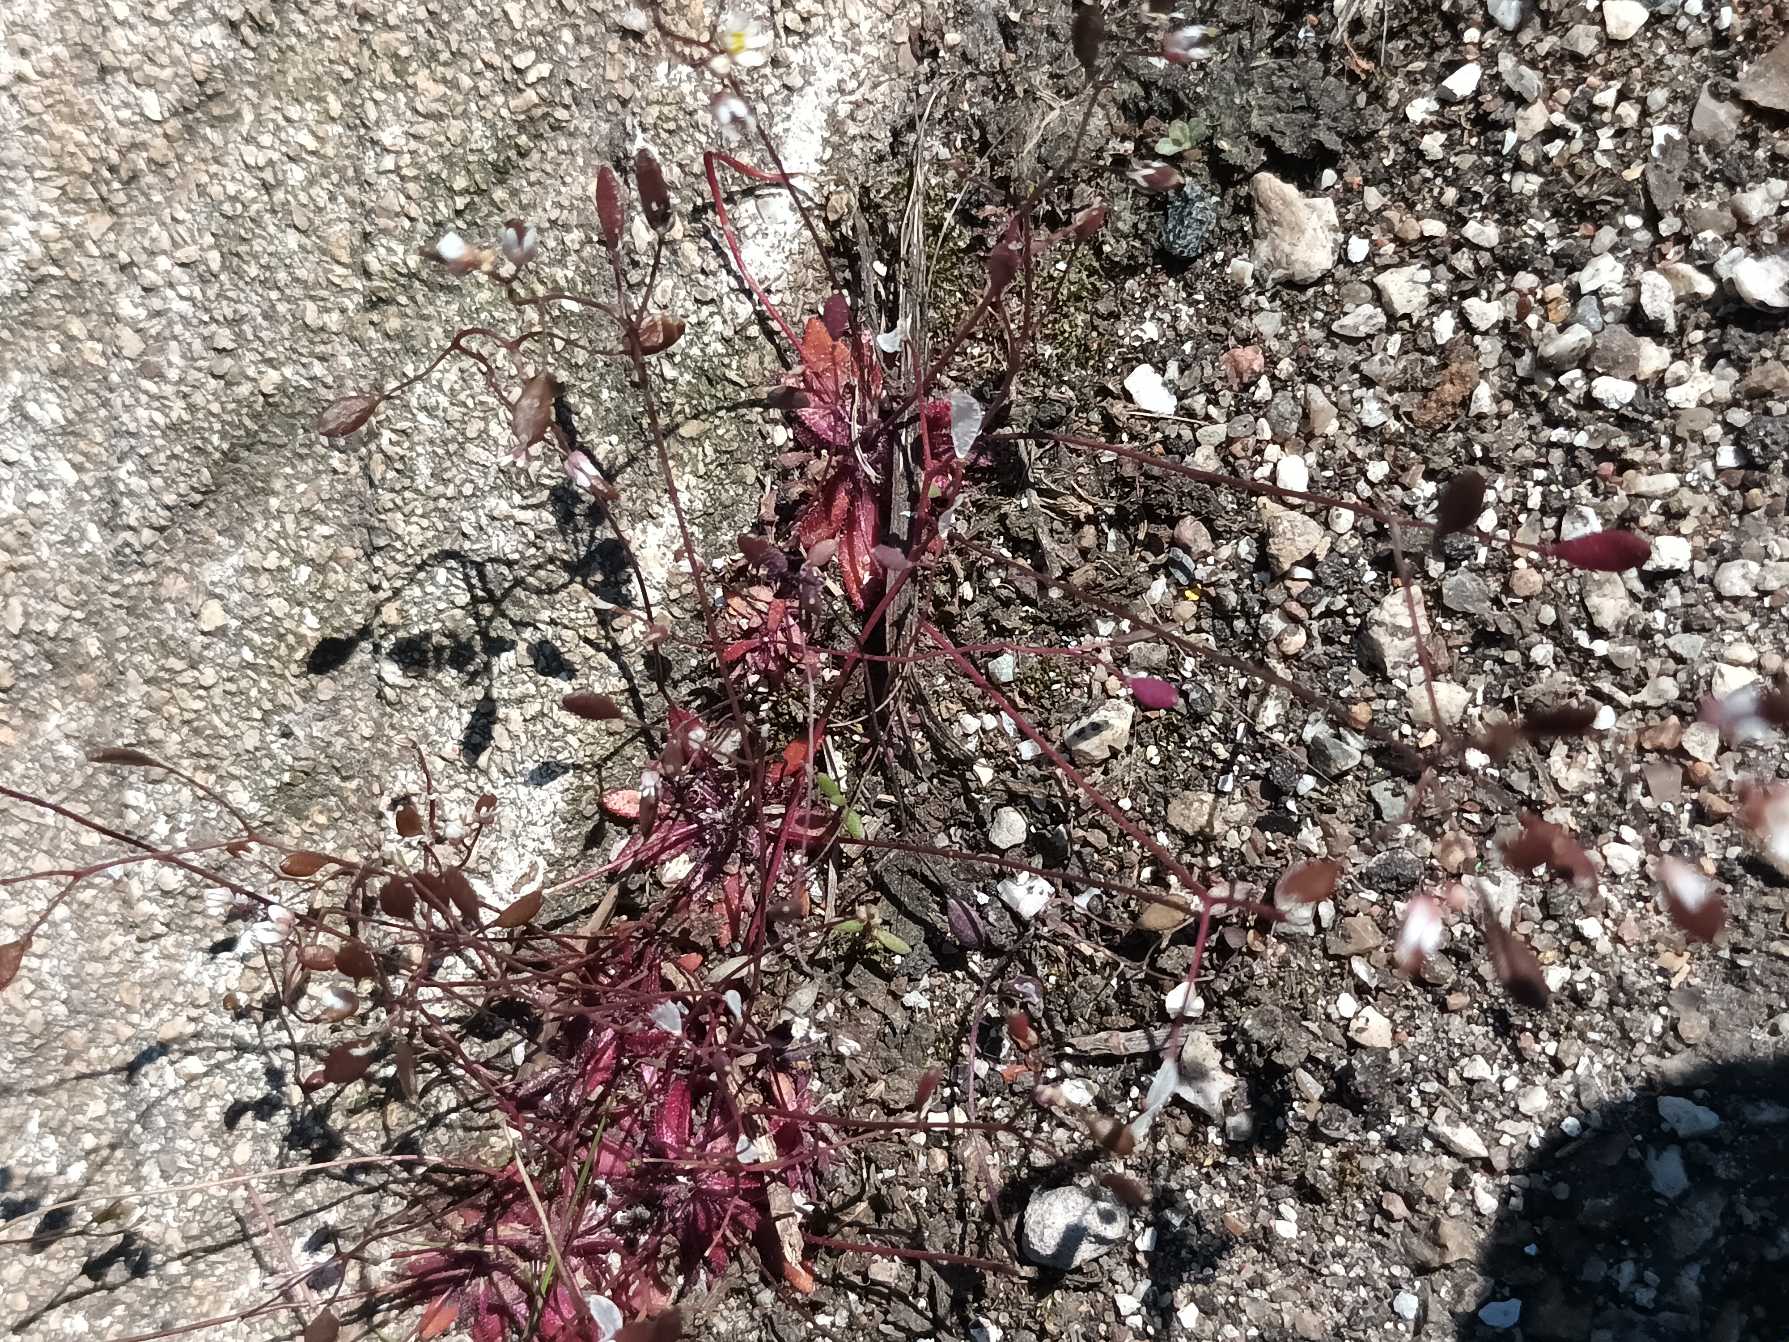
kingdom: Plantae
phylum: Tracheophyta
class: Magnoliopsida
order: Brassicales
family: Brassicaceae
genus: Draba
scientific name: Draba verna
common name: Vår-gæslingeblomst
